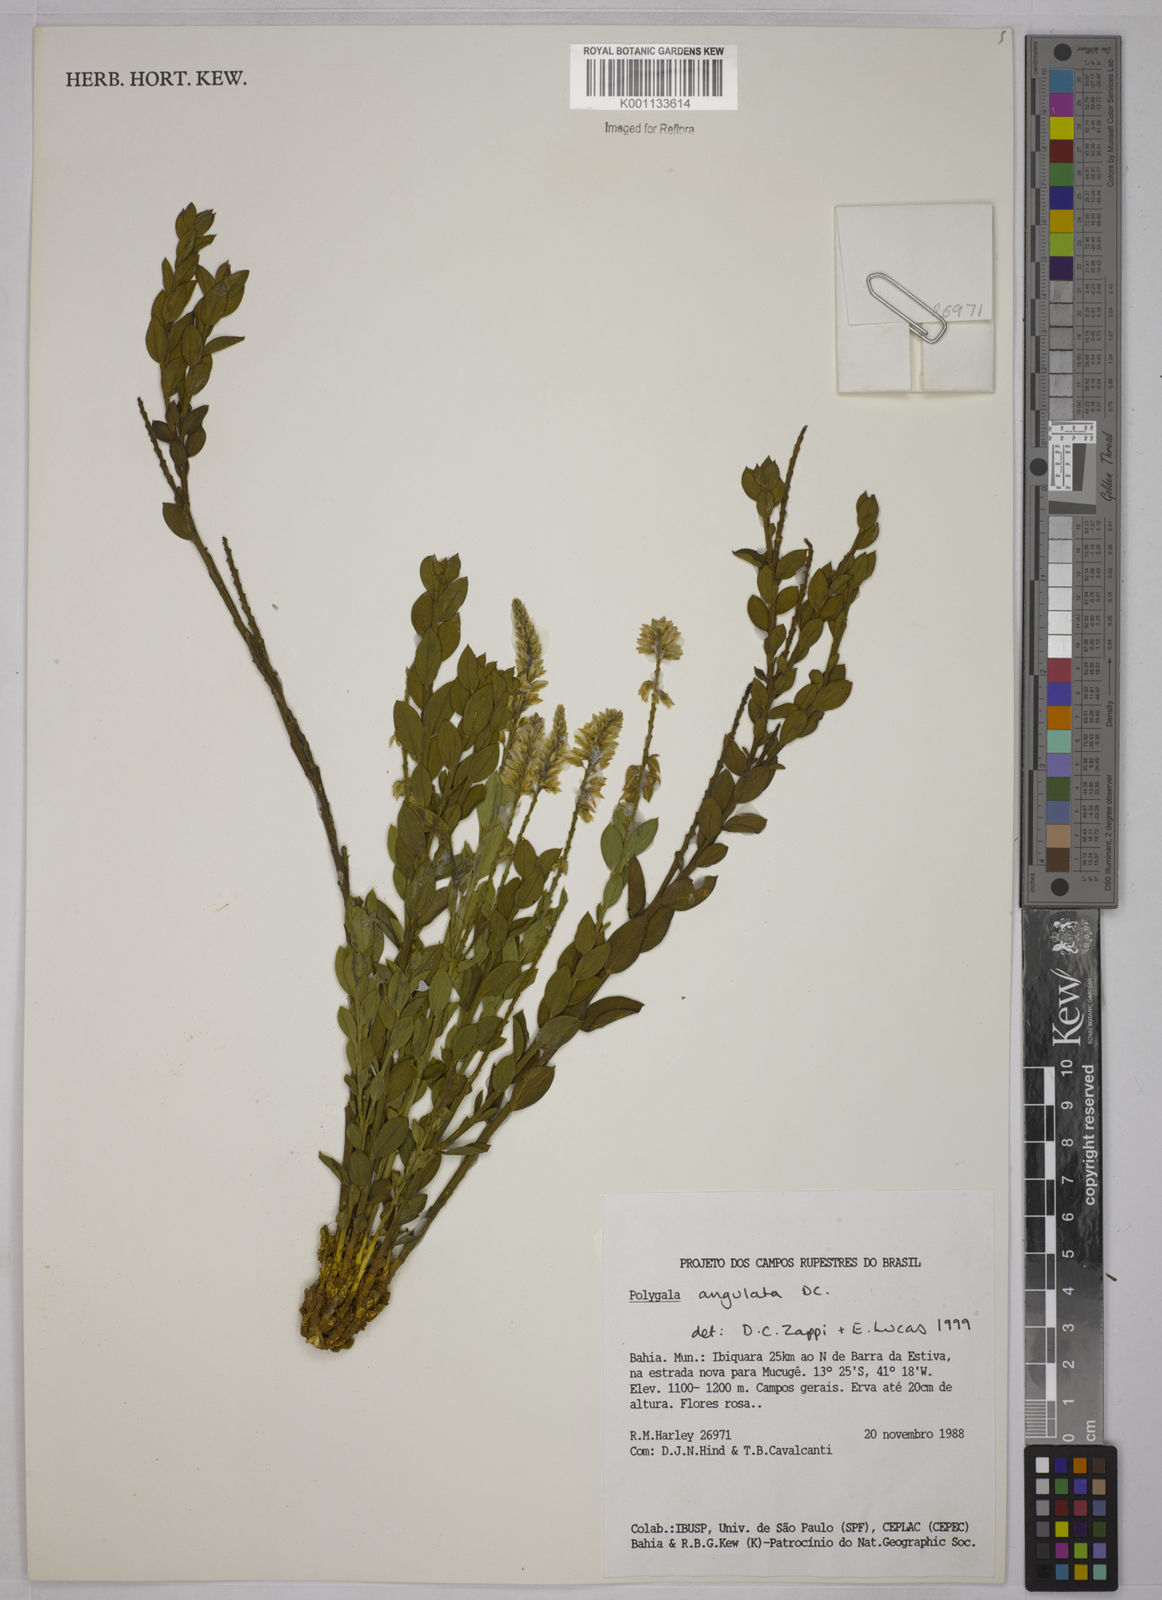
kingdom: Plantae
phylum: Tracheophyta
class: Magnoliopsida
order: Fabales
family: Polygalaceae
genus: Polygala
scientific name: Polygala poaya
